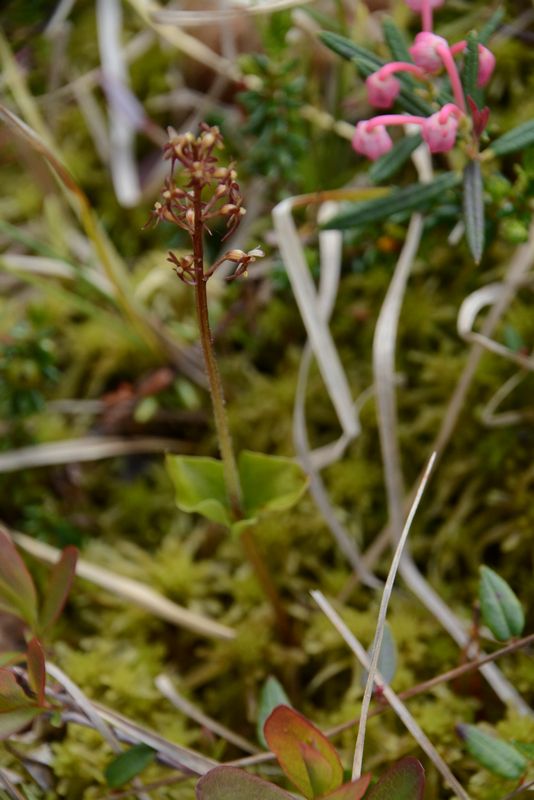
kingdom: Plantae
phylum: Tracheophyta
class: Liliopsida
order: Asparagales
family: Orchidaceae
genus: Neottia
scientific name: Neottia cordata
